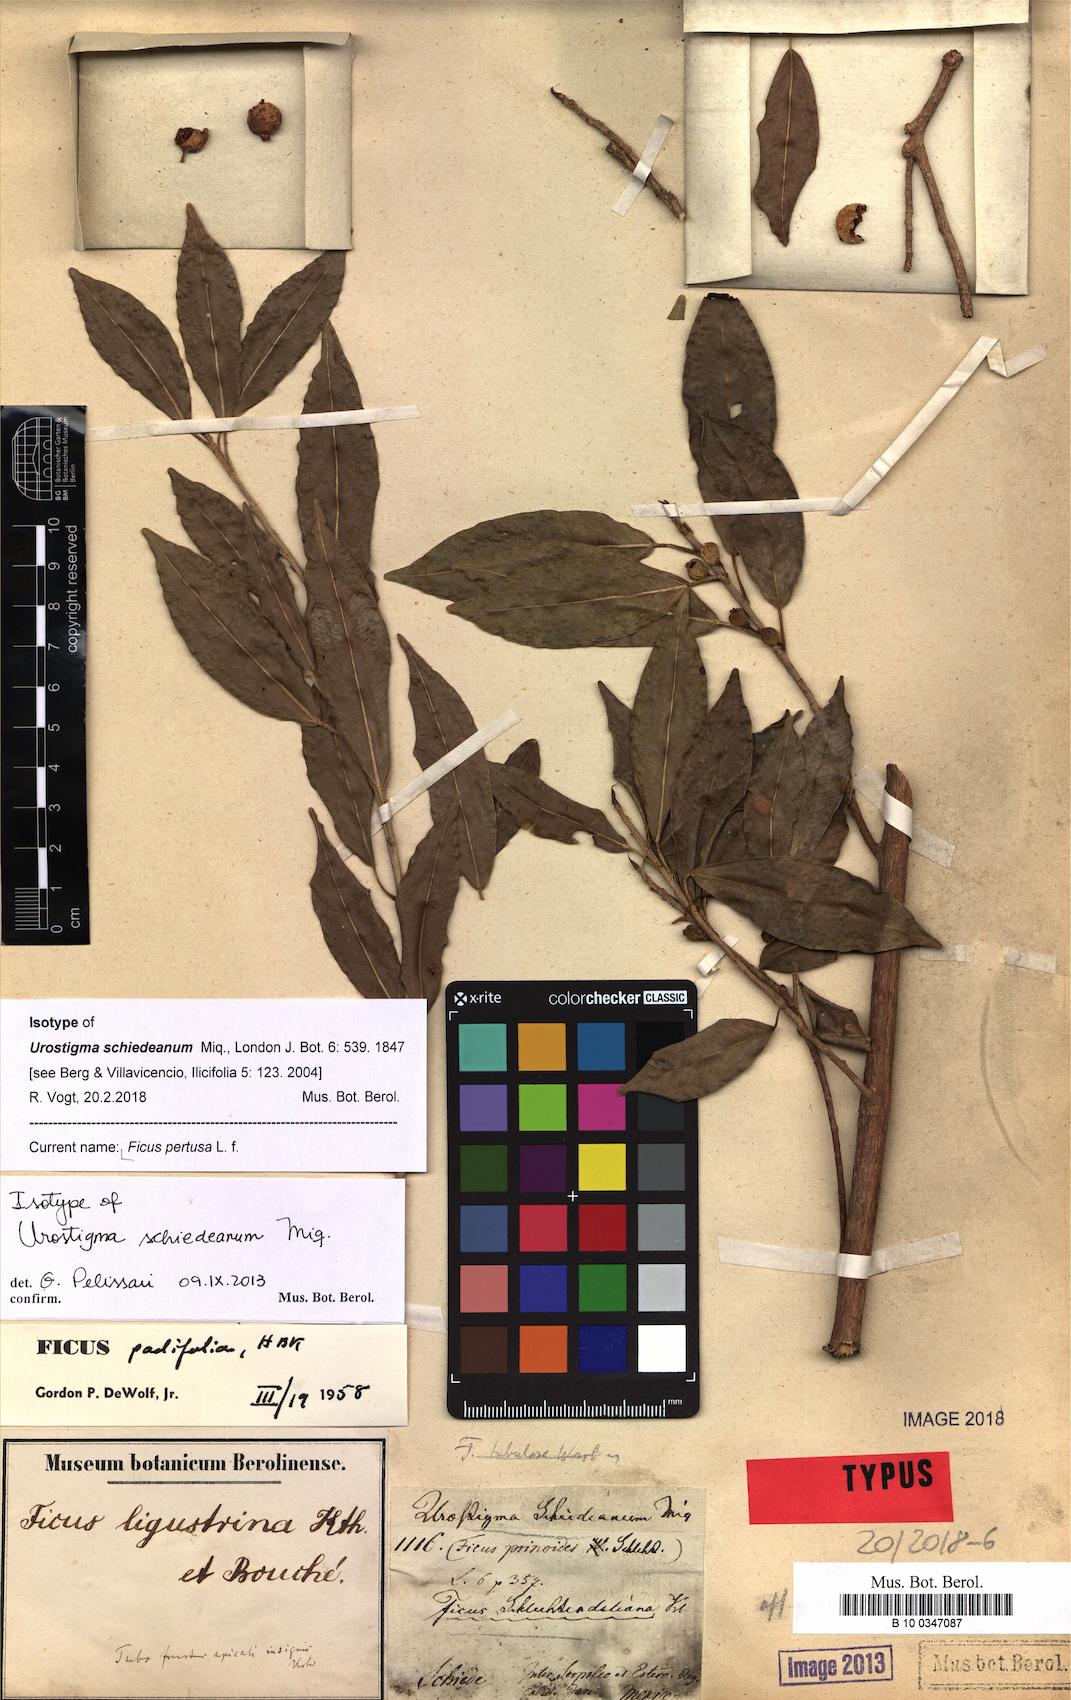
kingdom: Plantae
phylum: Tracheophyta
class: Magnoliopsida
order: Rosales
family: Moraceae
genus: Ficus
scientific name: Ficus pertusa
